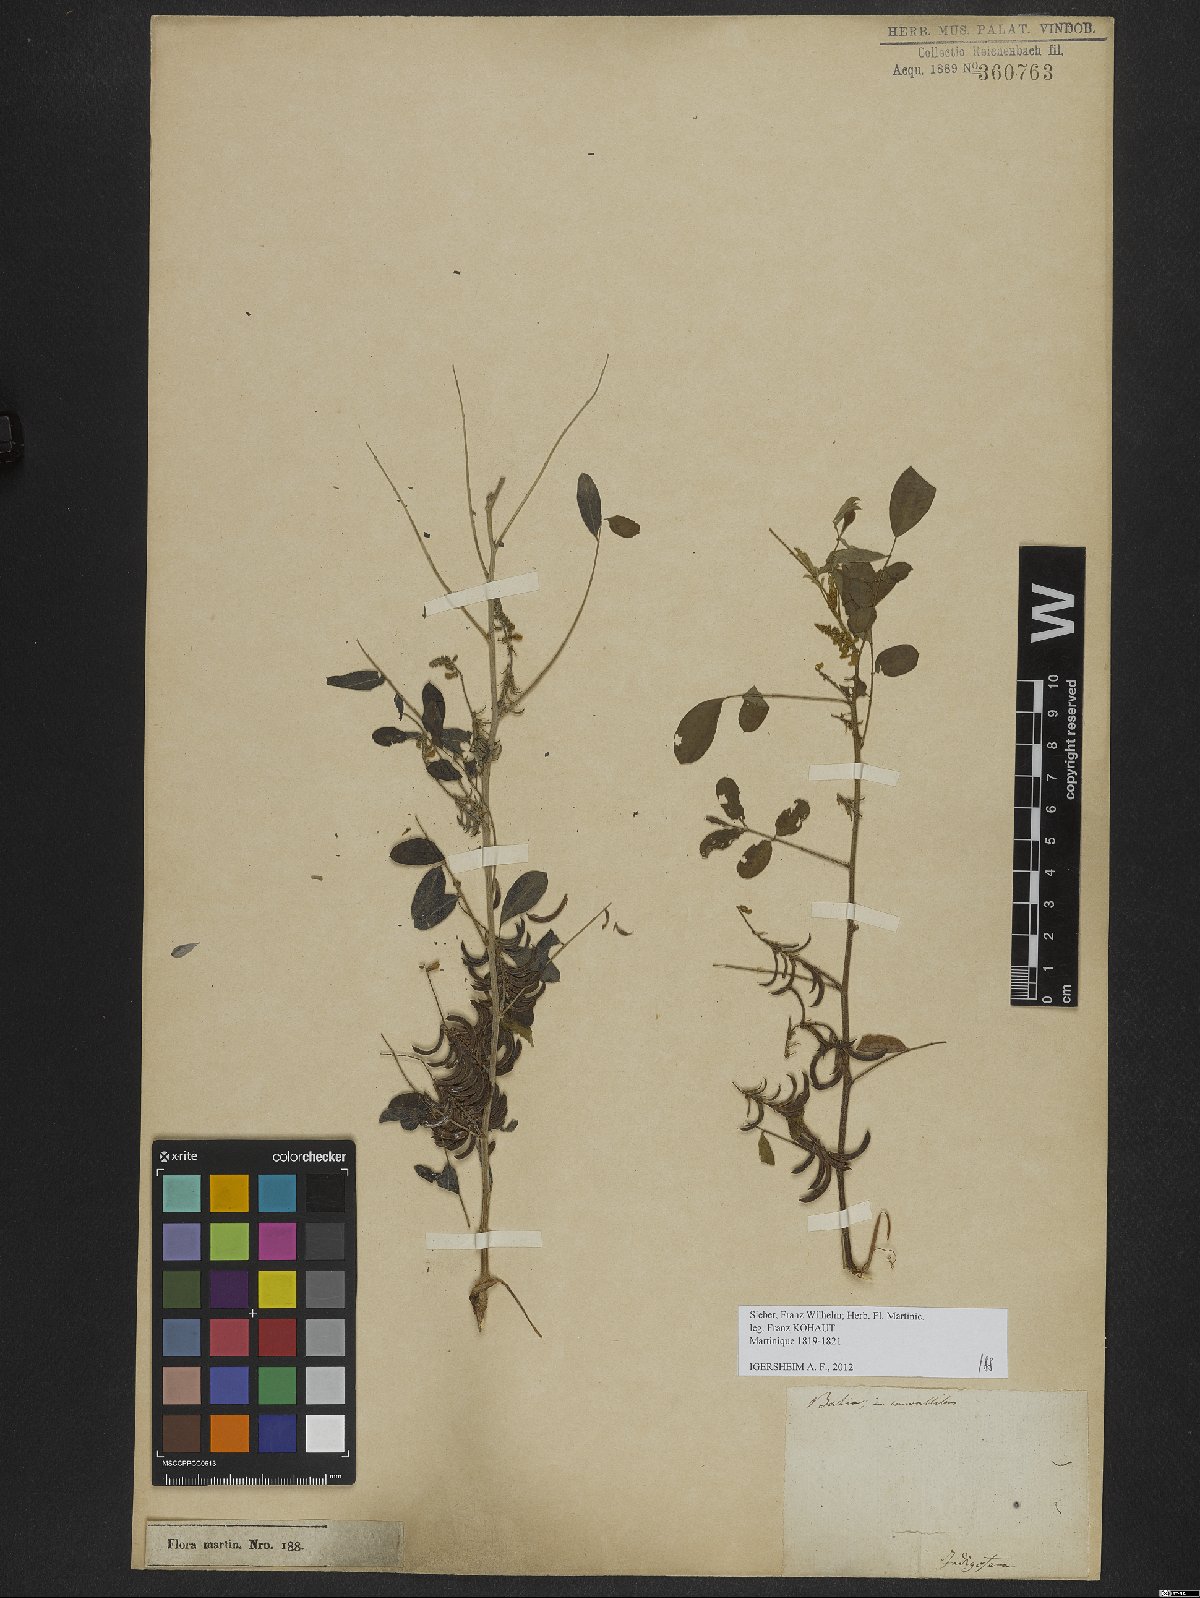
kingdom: Plantae
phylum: Tracheophyta
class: Magnoliopsida
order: Fabales
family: Fabaceae
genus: Indigofera
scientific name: Indigofera suffruticosa
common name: Anil de pasto
